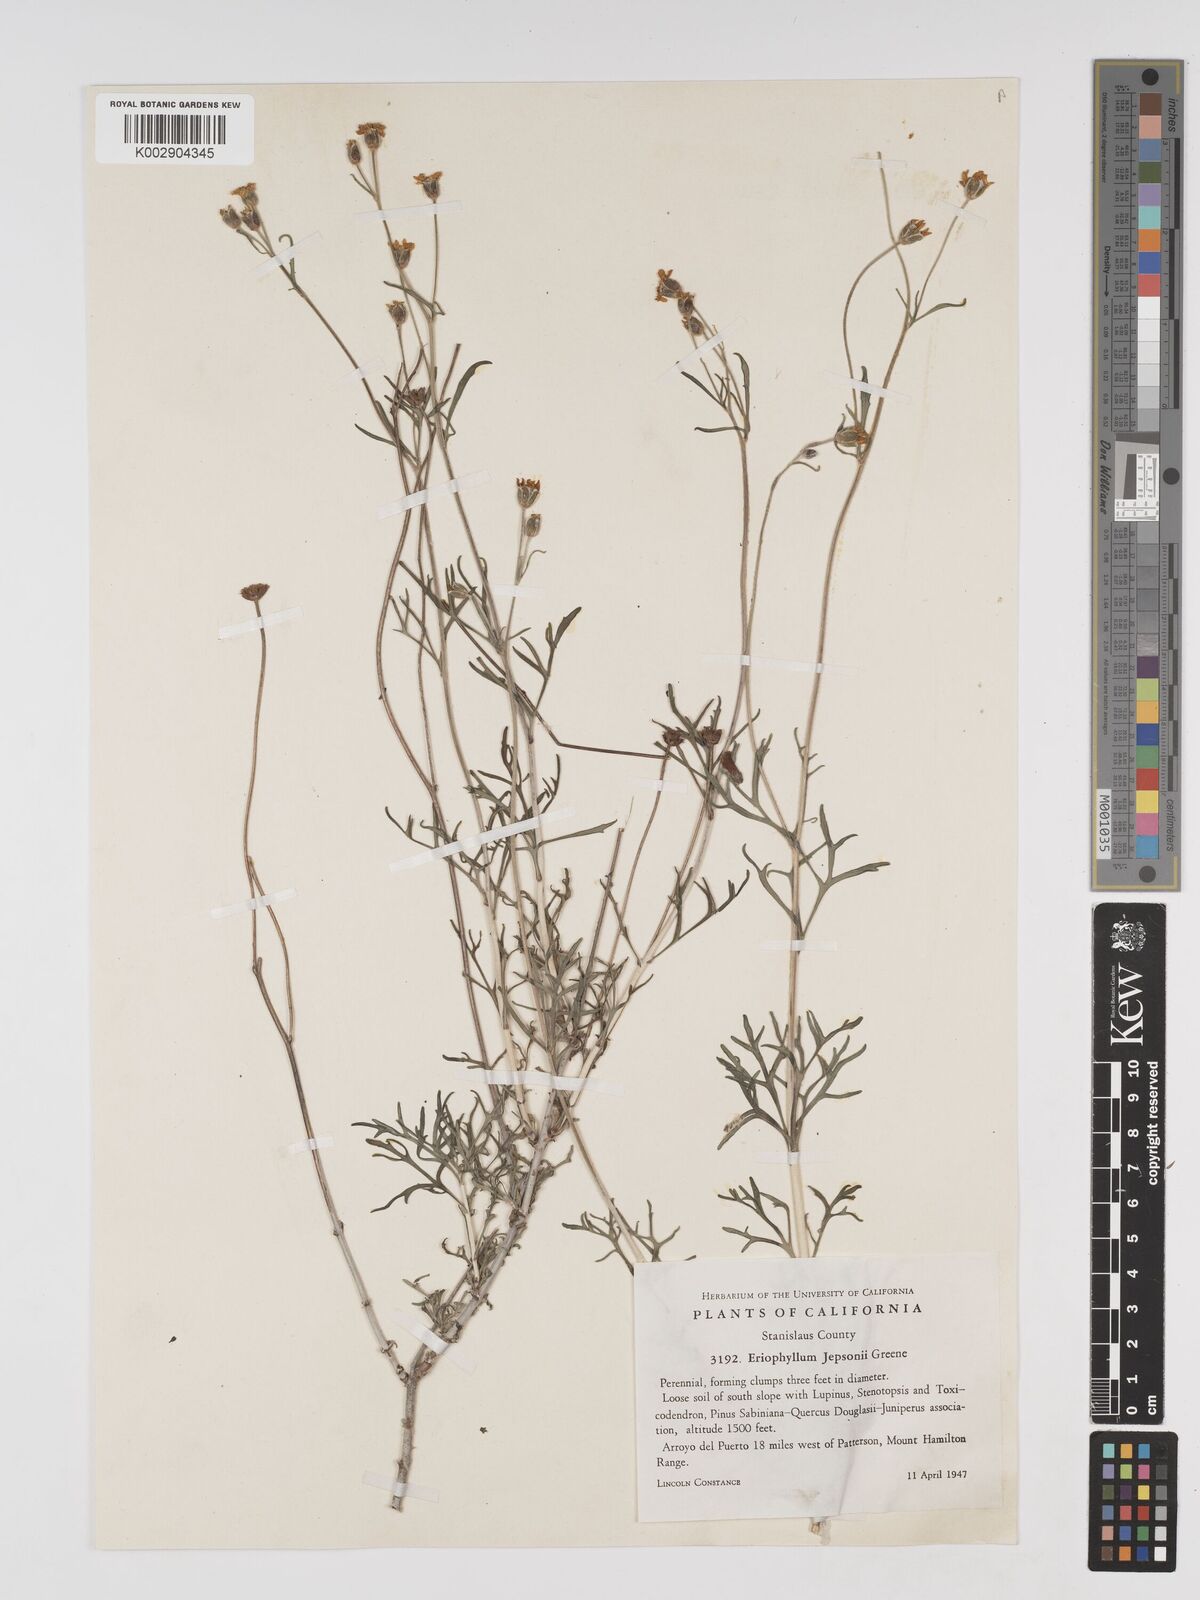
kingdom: Plantae
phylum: Tracheophyta
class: Magnoliopsida
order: Asterales
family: Asteraceae
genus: Eriophyllum
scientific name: Eriophyllum jepsonii
